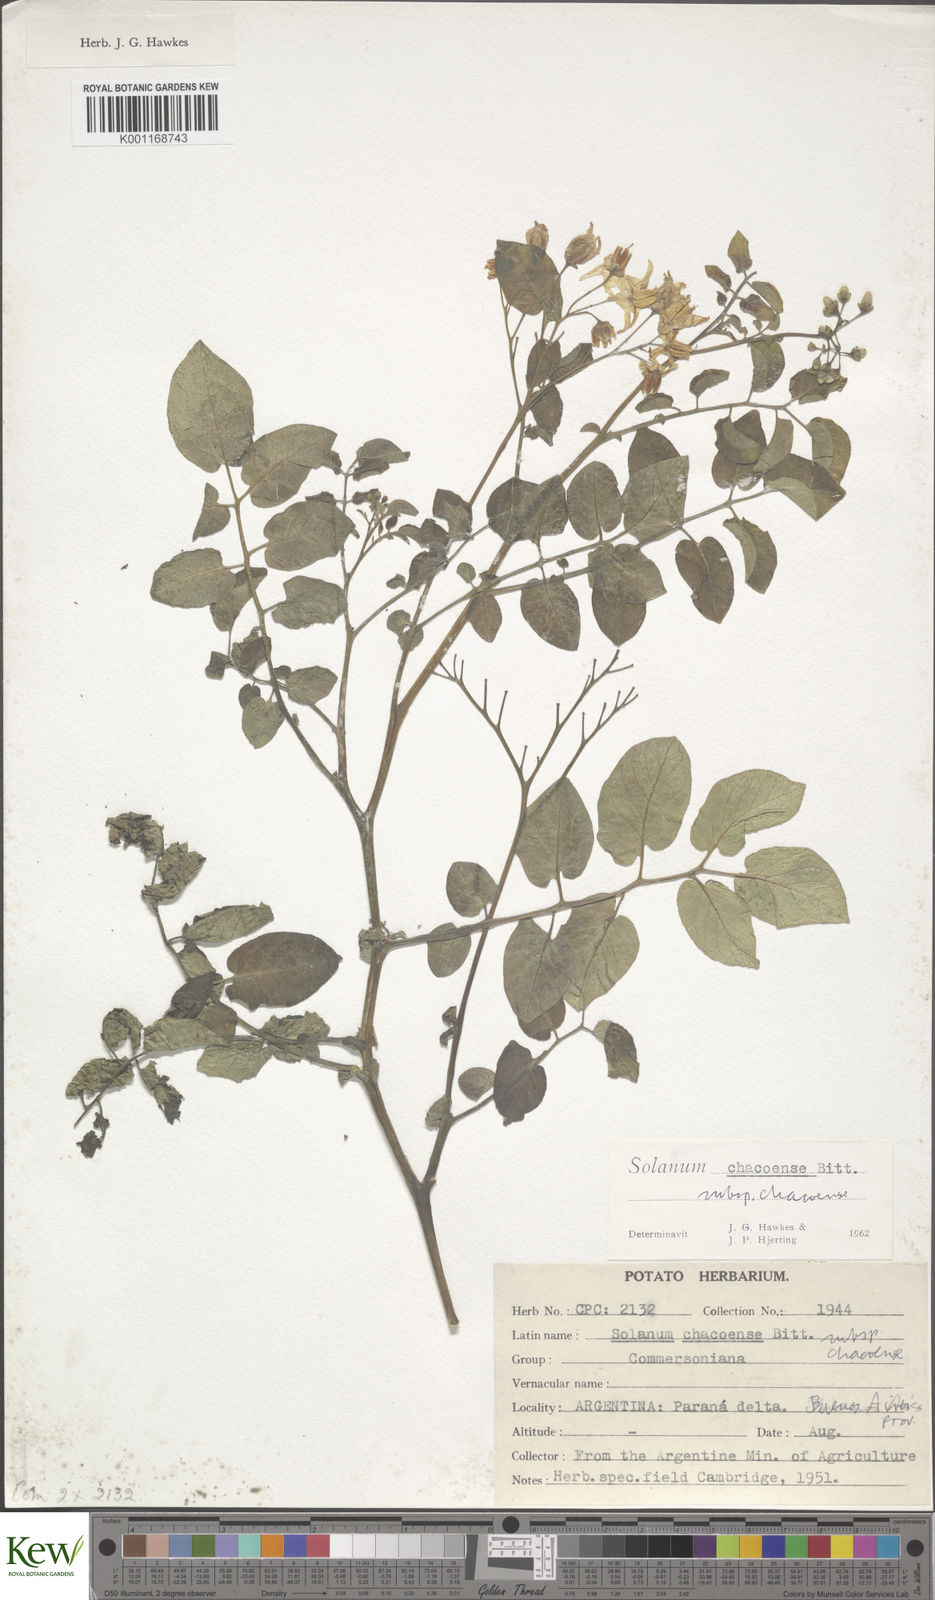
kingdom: Plantae
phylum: Tracheophyta
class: Magnoliopsida
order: Solanales
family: Solanaceae
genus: Solanum
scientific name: Solanum chacoense
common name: Chaco potato
